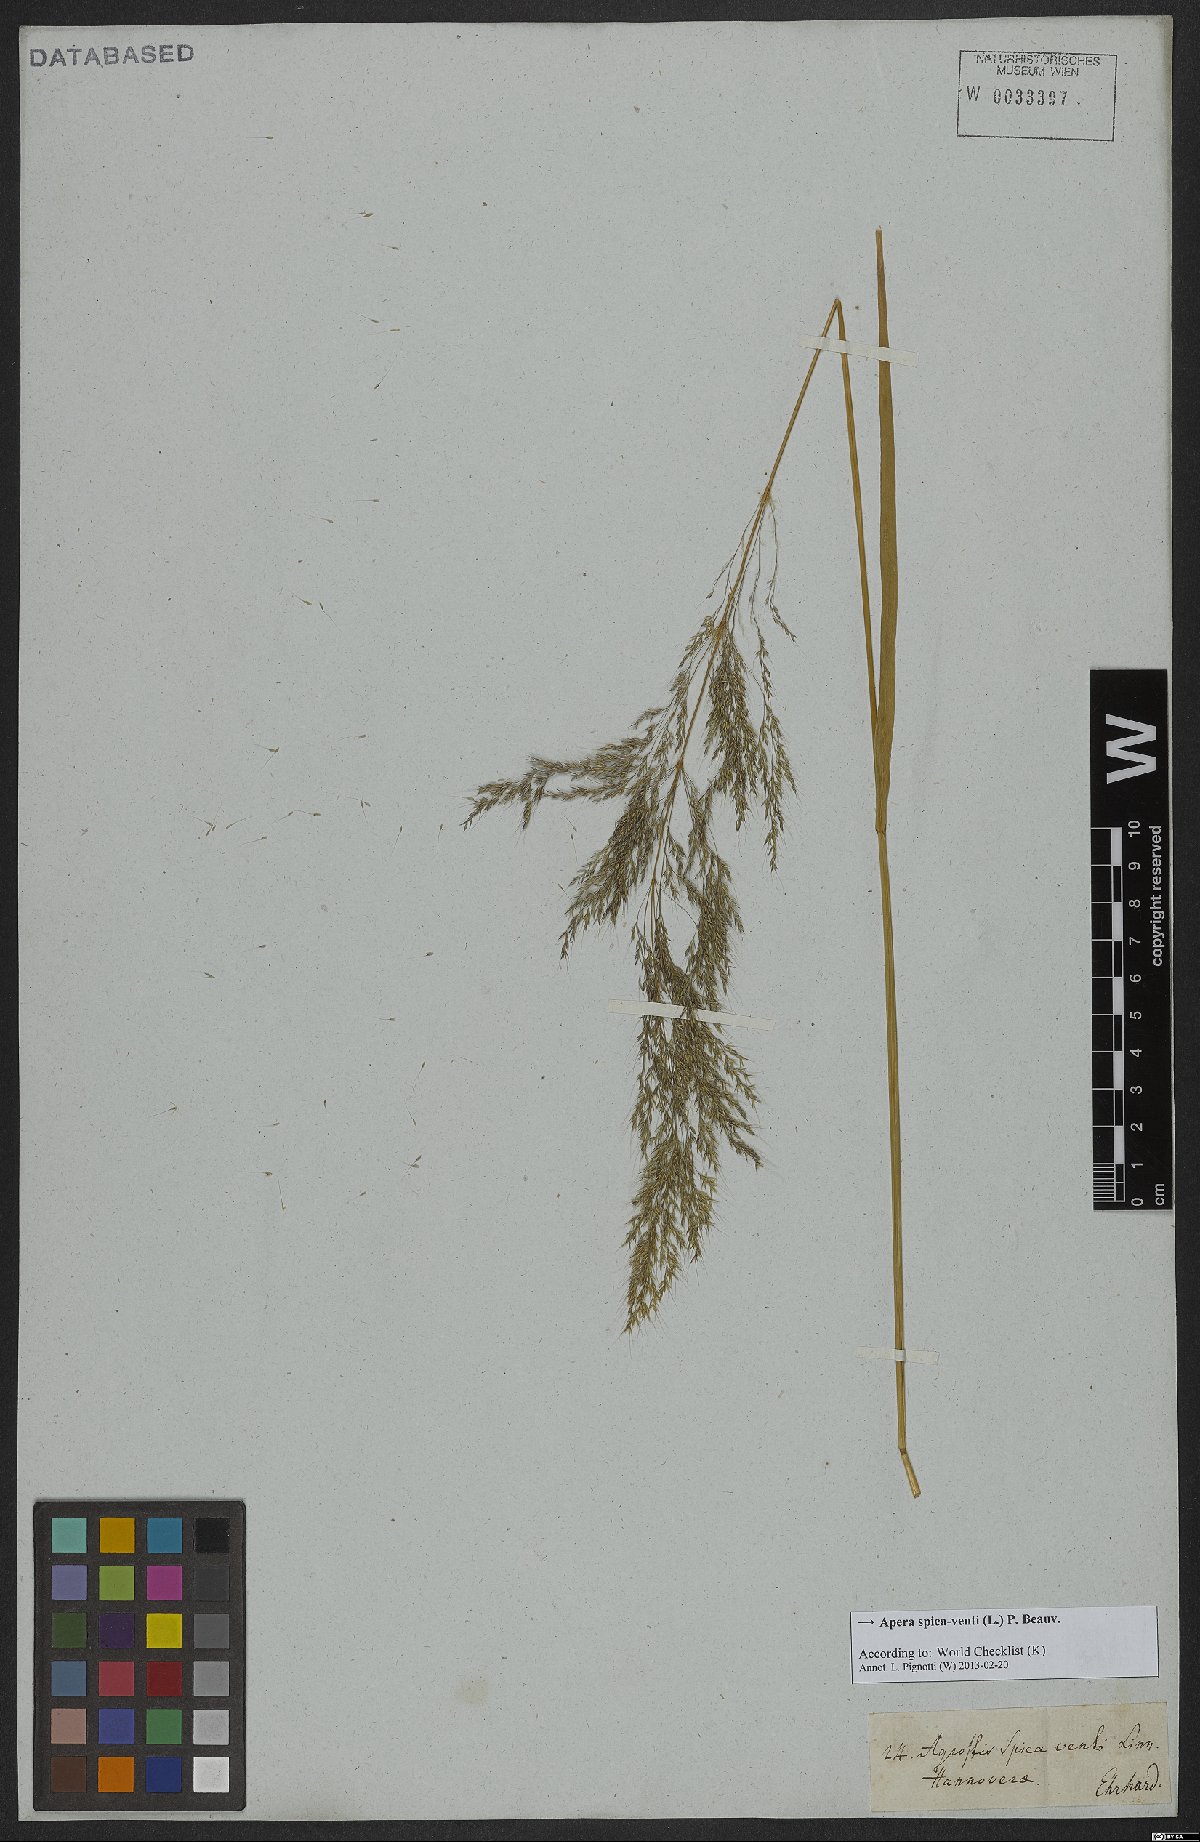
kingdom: Plantae
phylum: Tracheophyta
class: Liliopsida
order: Poales
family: Poaceae
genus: Apera
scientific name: Apera spica-venti
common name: Loose silky-bent
